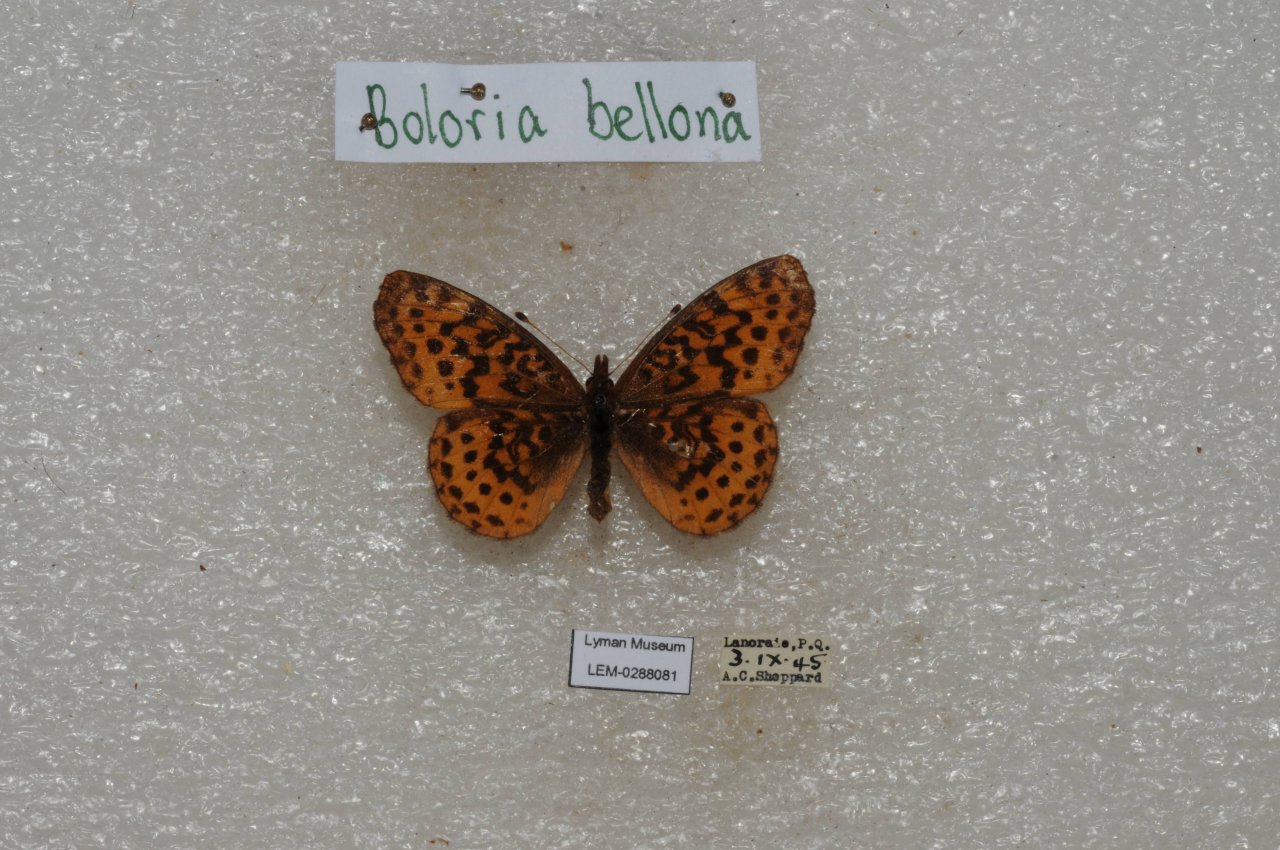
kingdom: Animalia
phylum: Arthropoda
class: Insecta
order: Lepidoptera
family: Nymphalidae
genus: Clossiana
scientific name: Clossiana toddi
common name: Meadow Fritillary
